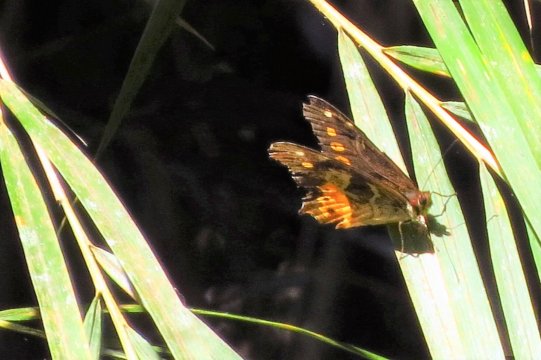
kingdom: Animalia
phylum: Arthropoda
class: Insecta
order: Lepidoptera
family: Nymphalidae
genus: Oxeoschistus
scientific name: Oxeoschistus euriphyle
